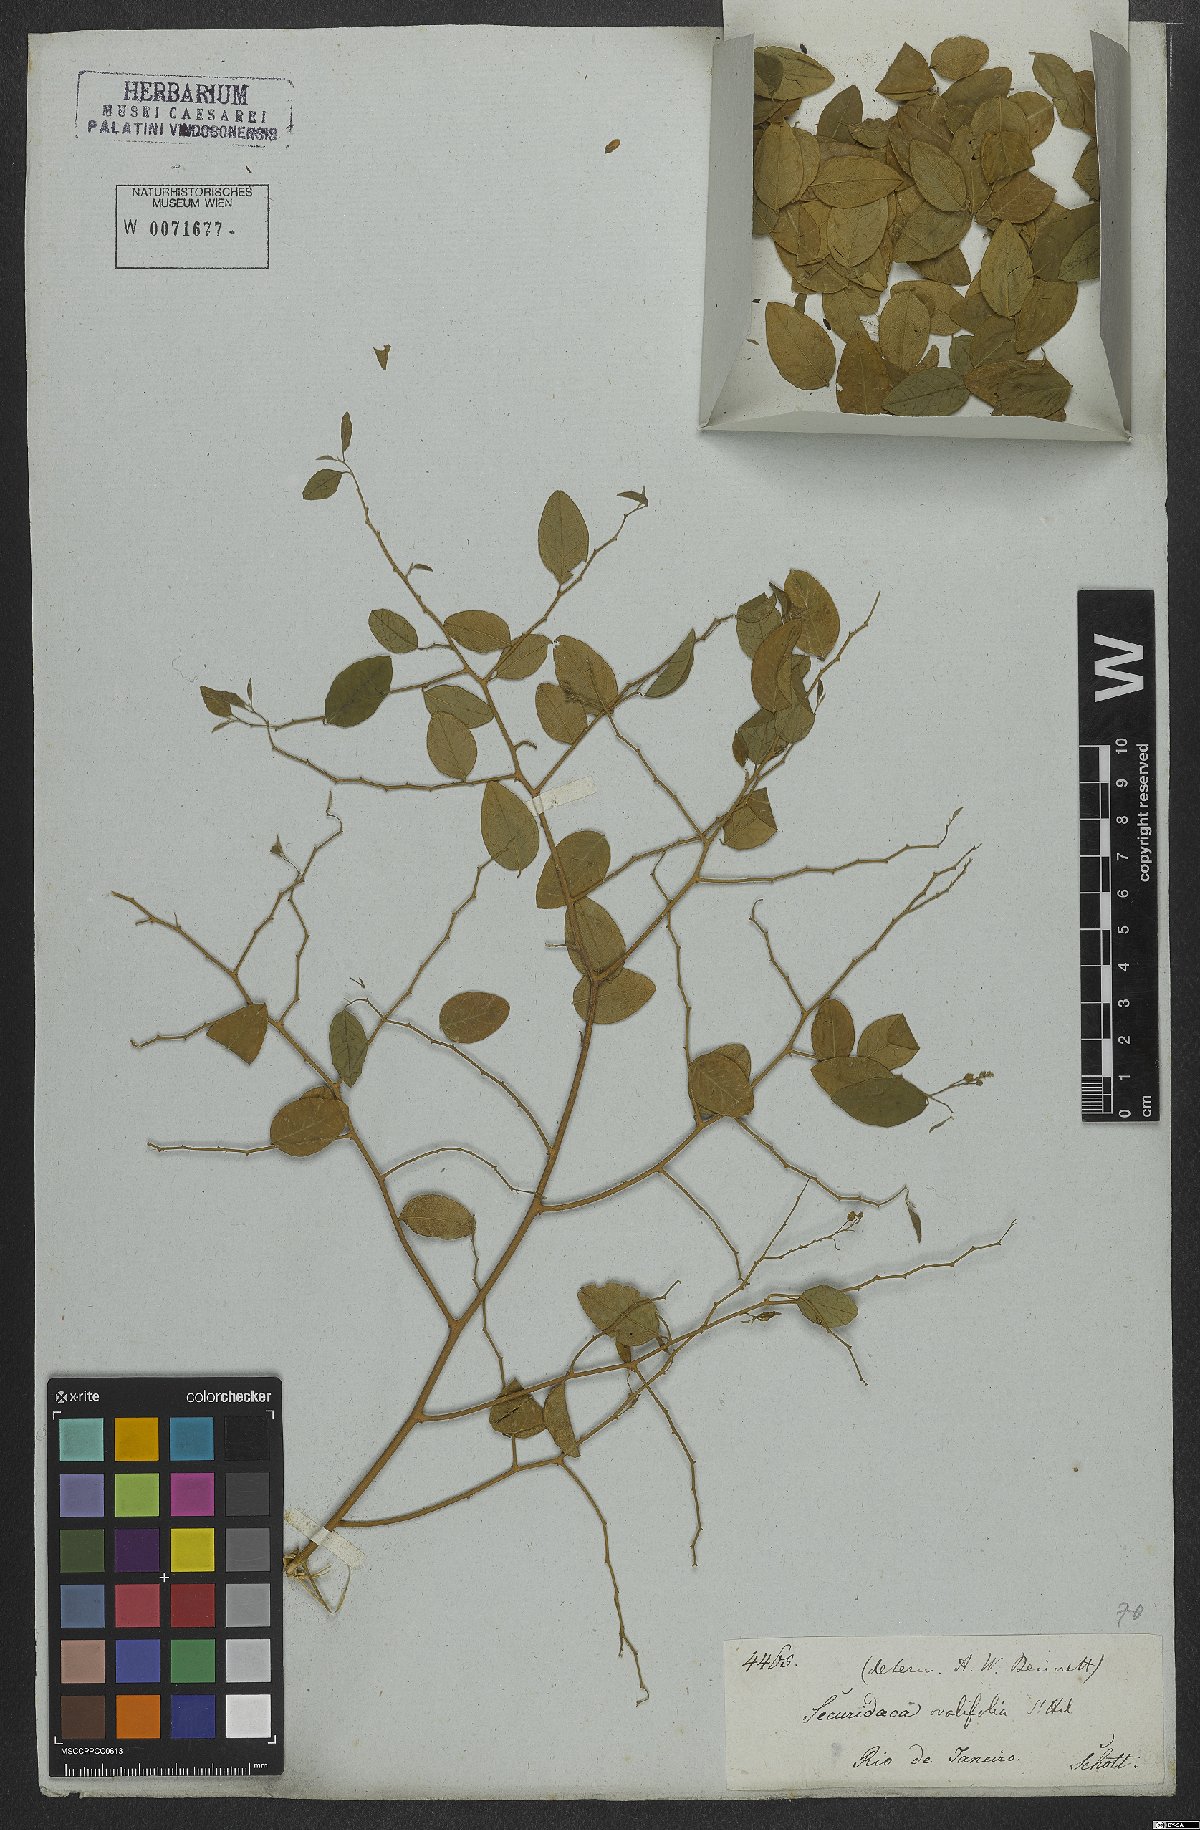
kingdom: Plantae
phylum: Tracheophyta
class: Magnoliopsida
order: Fabales
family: Polygalaceae
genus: Securidaca
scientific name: Securidaca ovalifolia
